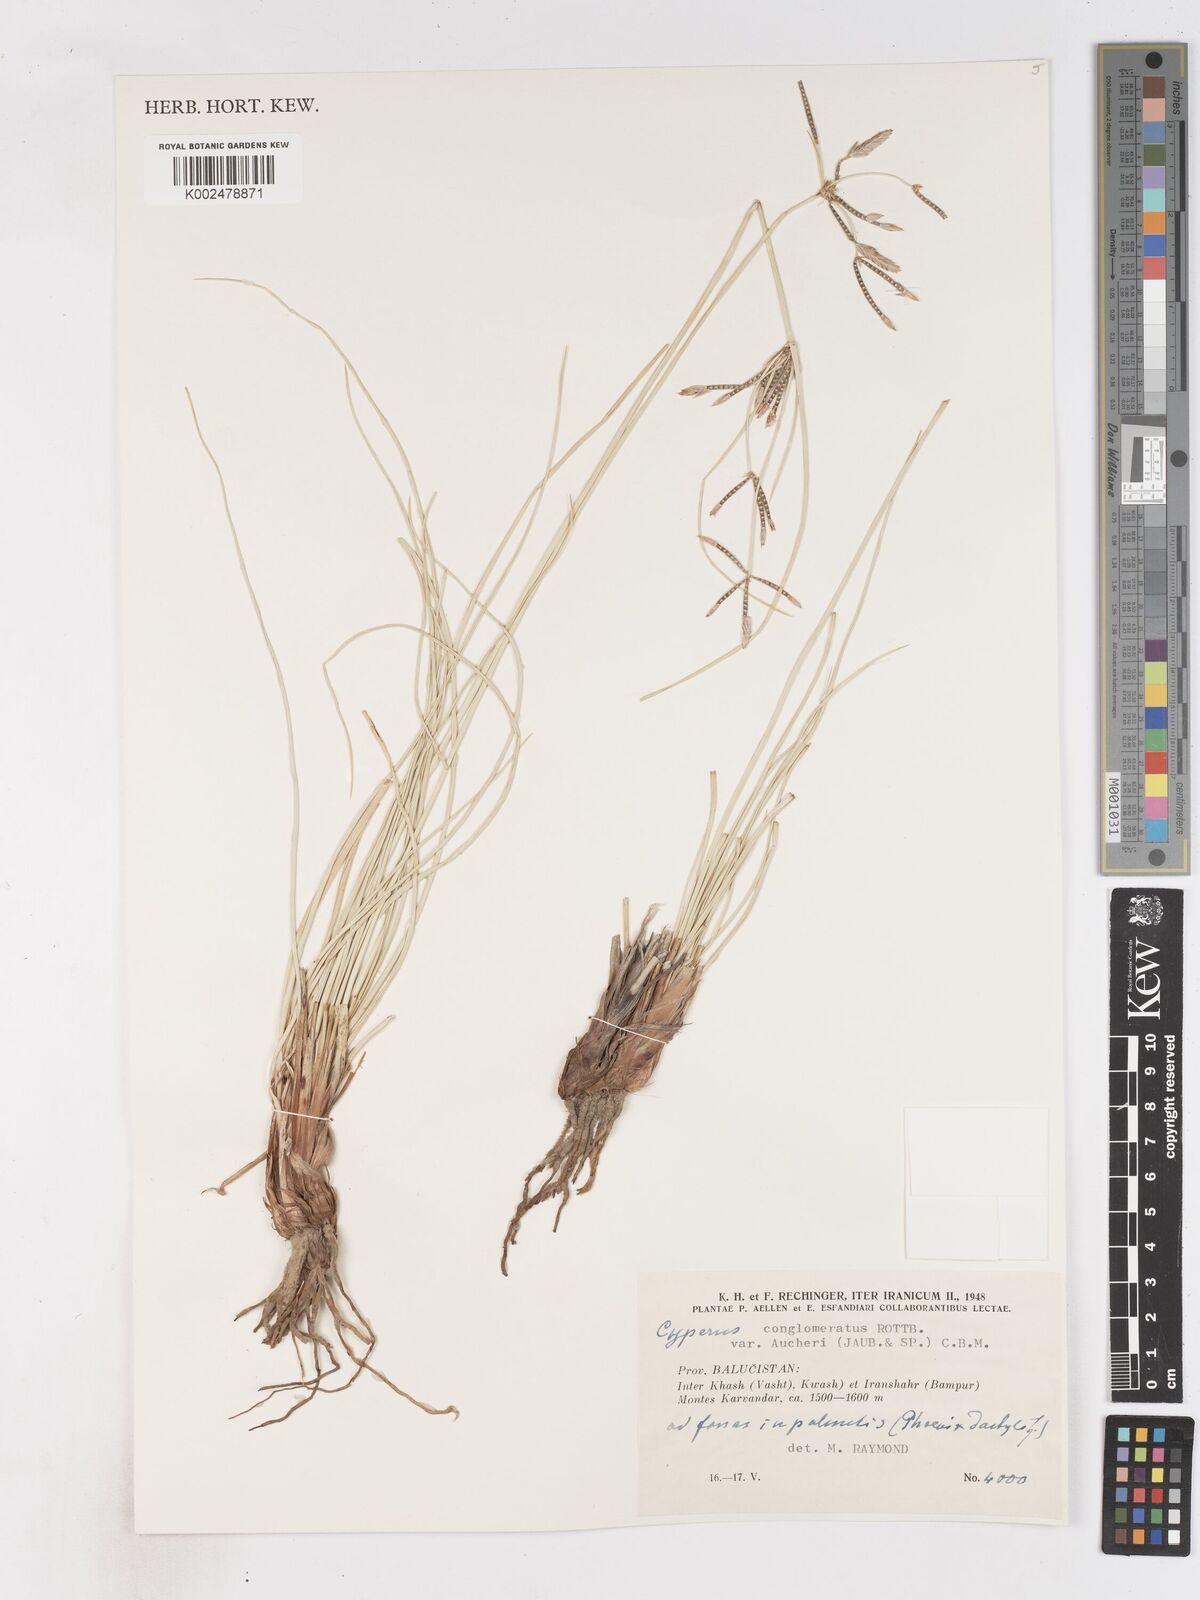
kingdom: Plantae
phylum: Tracheophyta
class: Liliopsida
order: Poales
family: Cyperaceae
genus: Cyperus
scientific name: Cyperus aucheri
